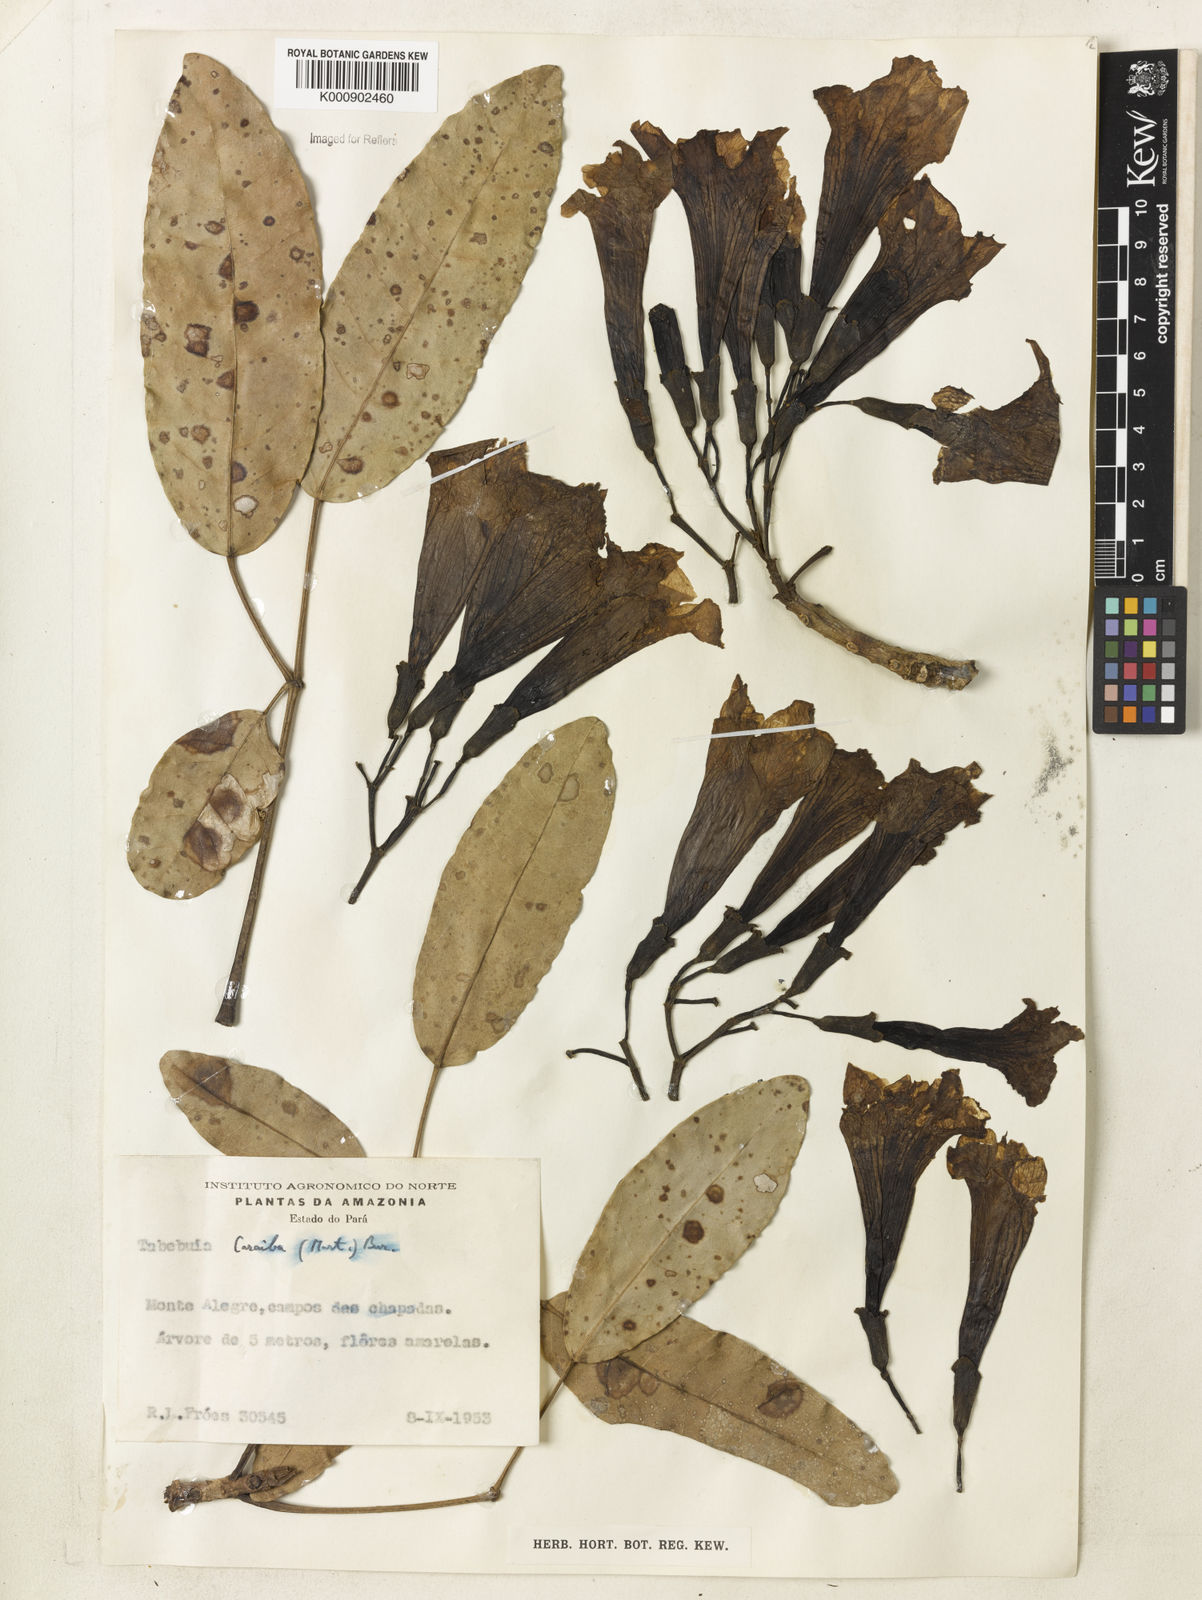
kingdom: Plantae
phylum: Tracheophyta
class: Magnoliopsida
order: Lamiales
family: Bignoniaceae
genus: Tabebuia
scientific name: Tabebuia aurea
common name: Caribbean trumpet-tree
